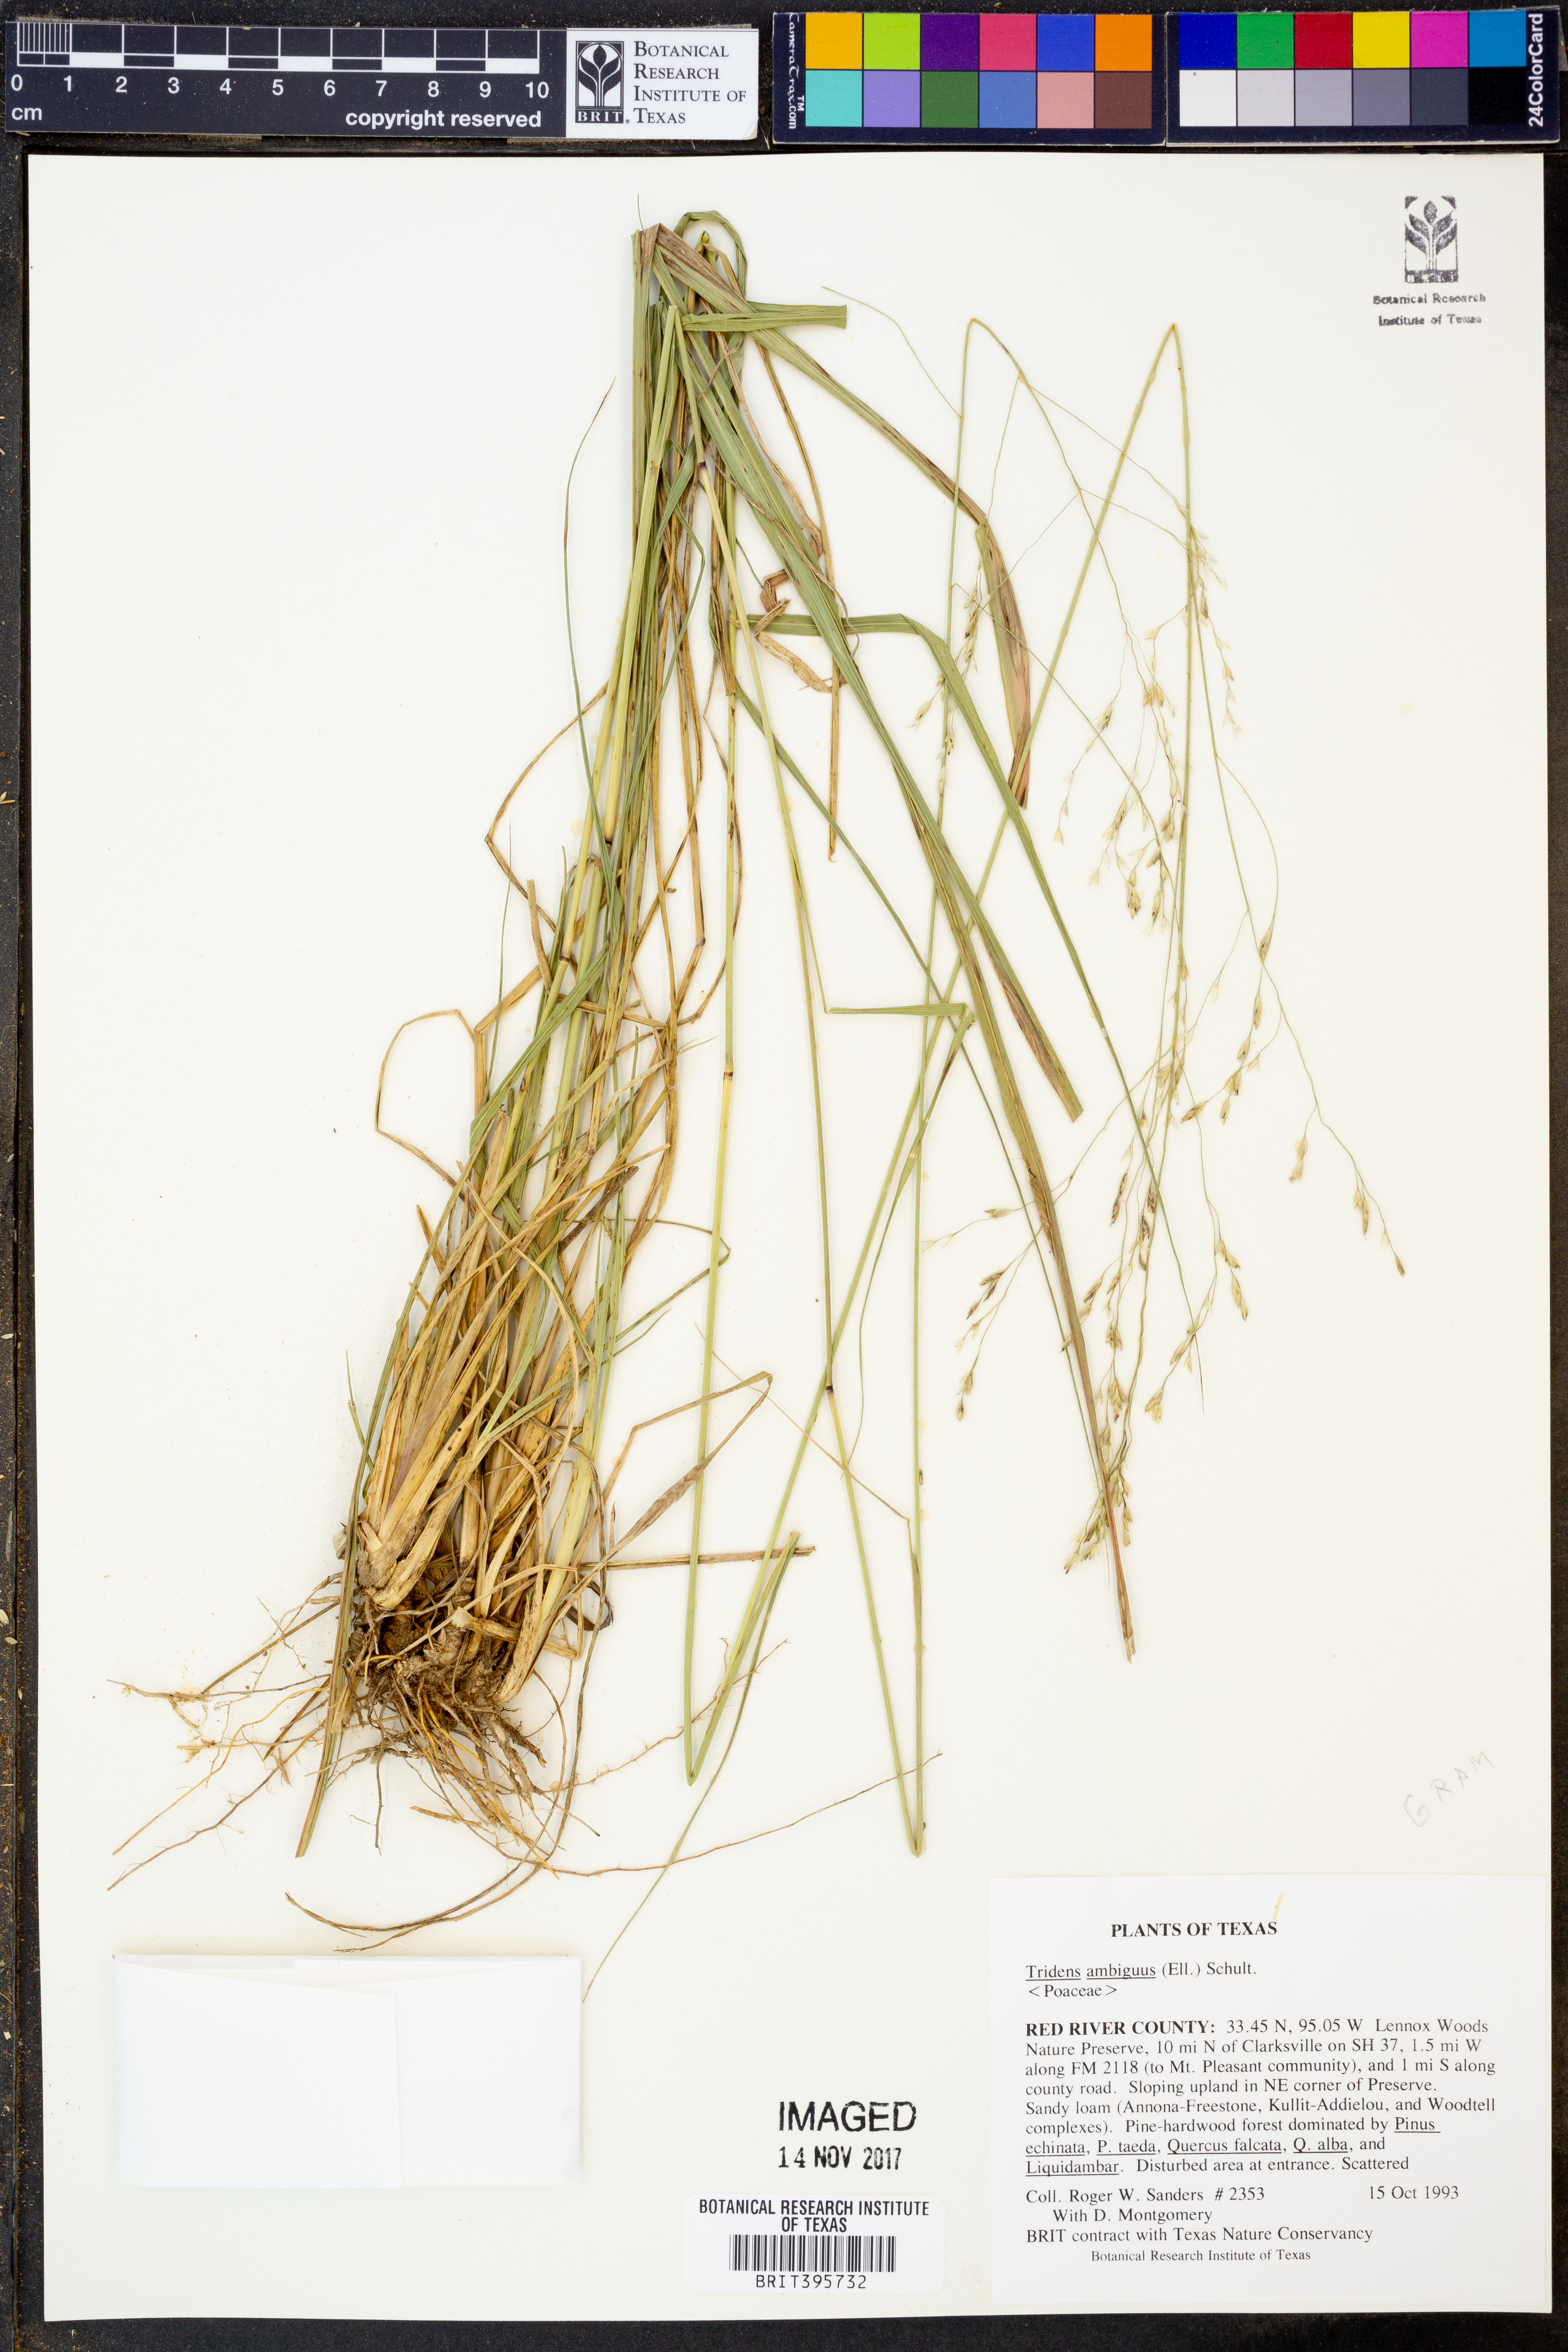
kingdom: Plantae
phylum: Tracheophyta
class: Liliopsida
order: Poales
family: Poaceae
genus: Tridens
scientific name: Tridens ambiguus
